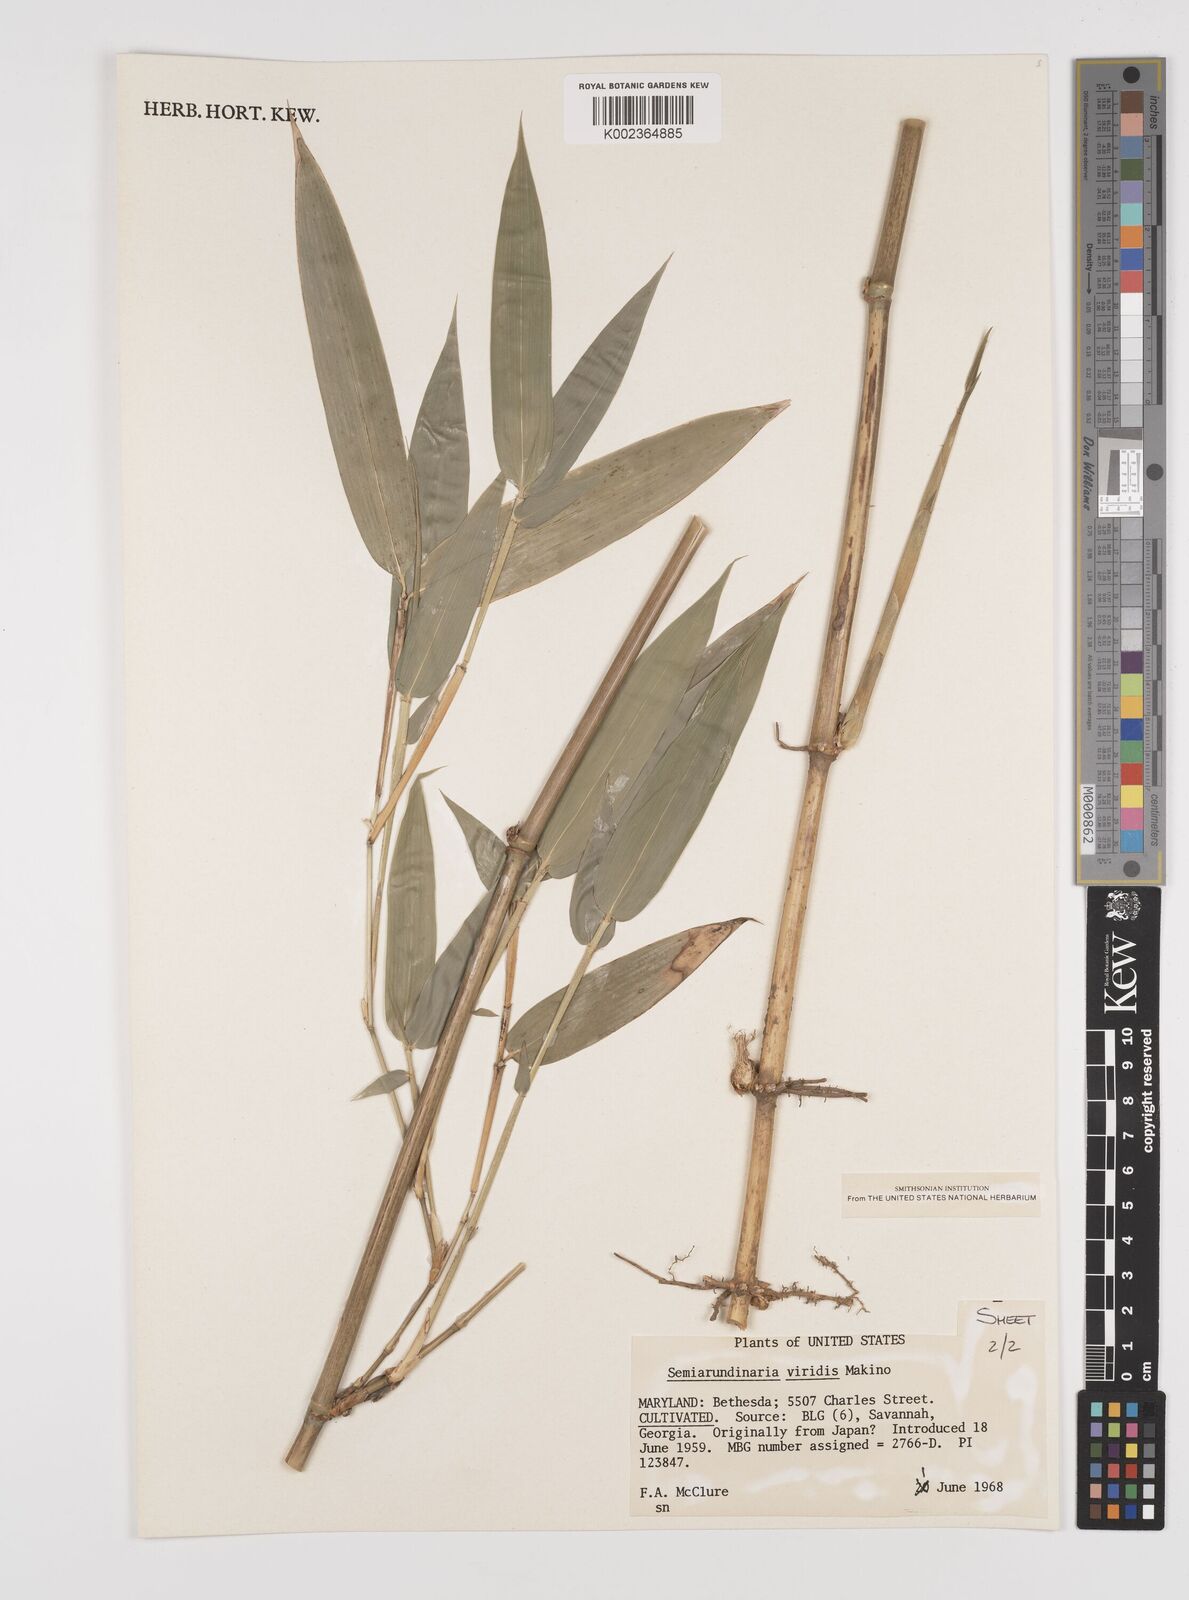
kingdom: Plantae
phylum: Tracheophyta
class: Liliopsida
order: Poales
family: Poaceae
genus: Semiarundinaria
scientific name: Semiarundinaria fastuosa
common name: Narihira bamboo
